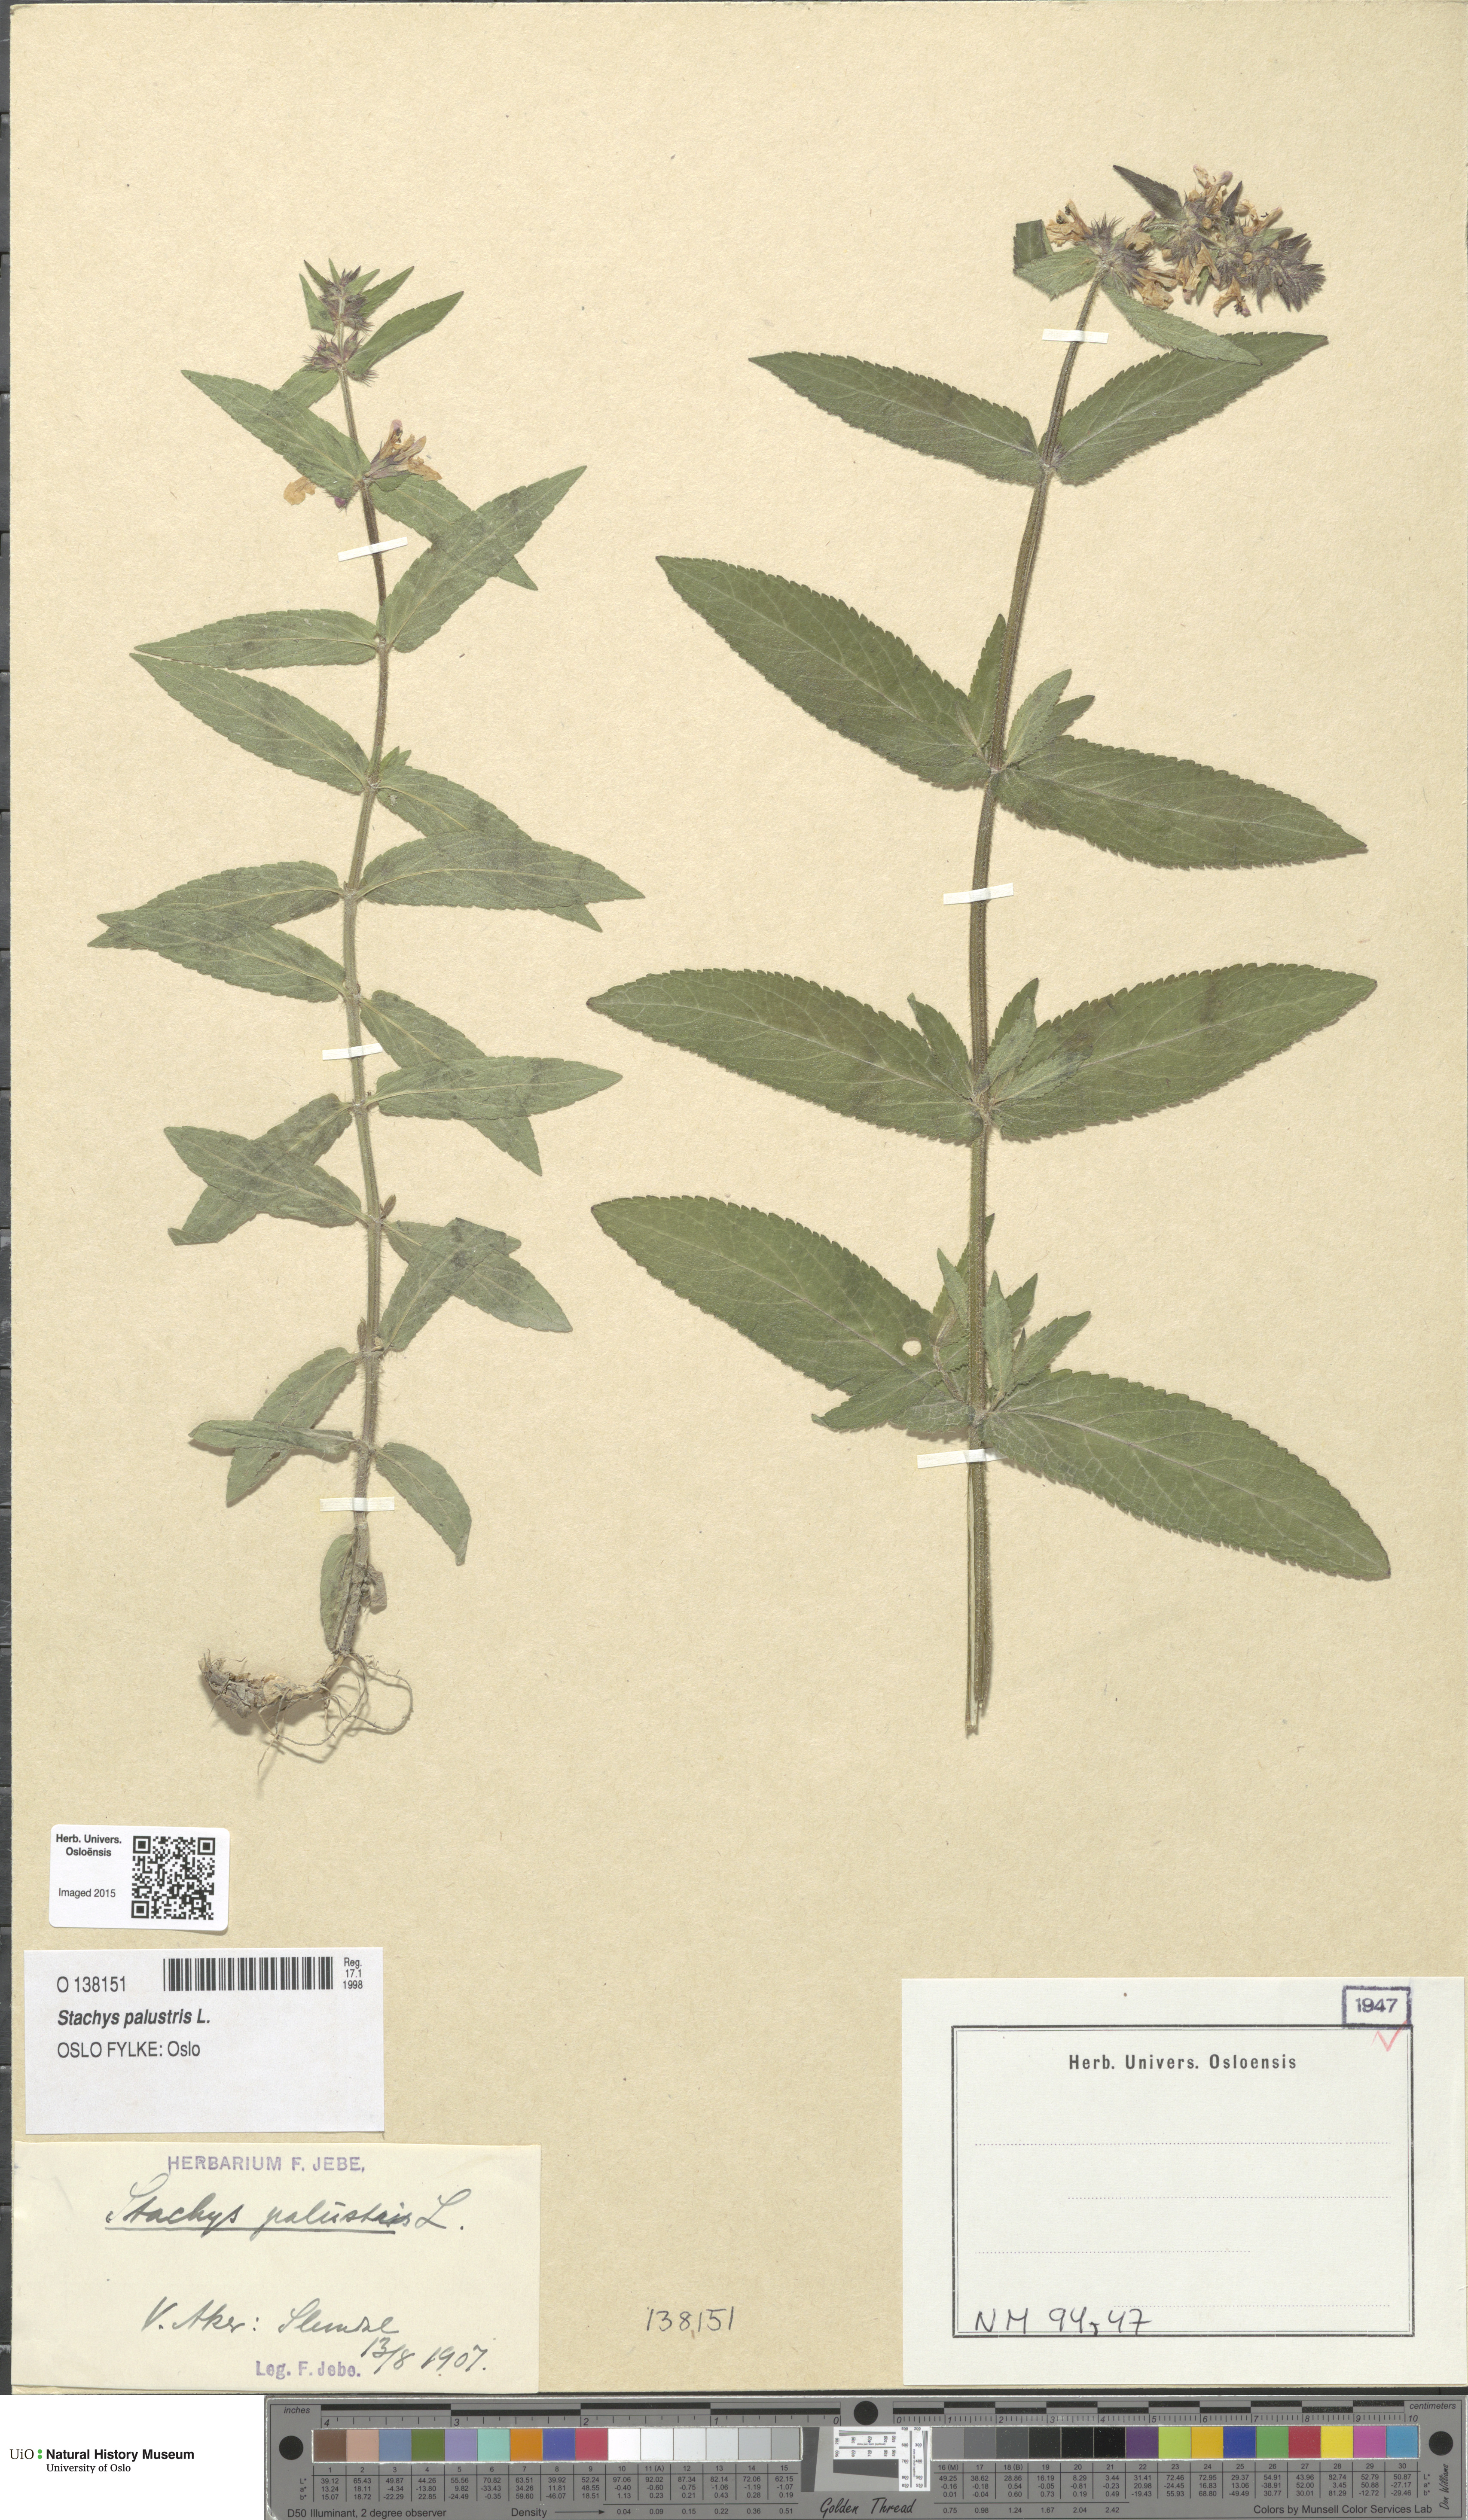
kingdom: Plantae
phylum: Tracheophyta
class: Magnoliopsida
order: Lamiales
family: Lamiaceae
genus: Stachys
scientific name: Stachys palustris
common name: Marsh woundwort
